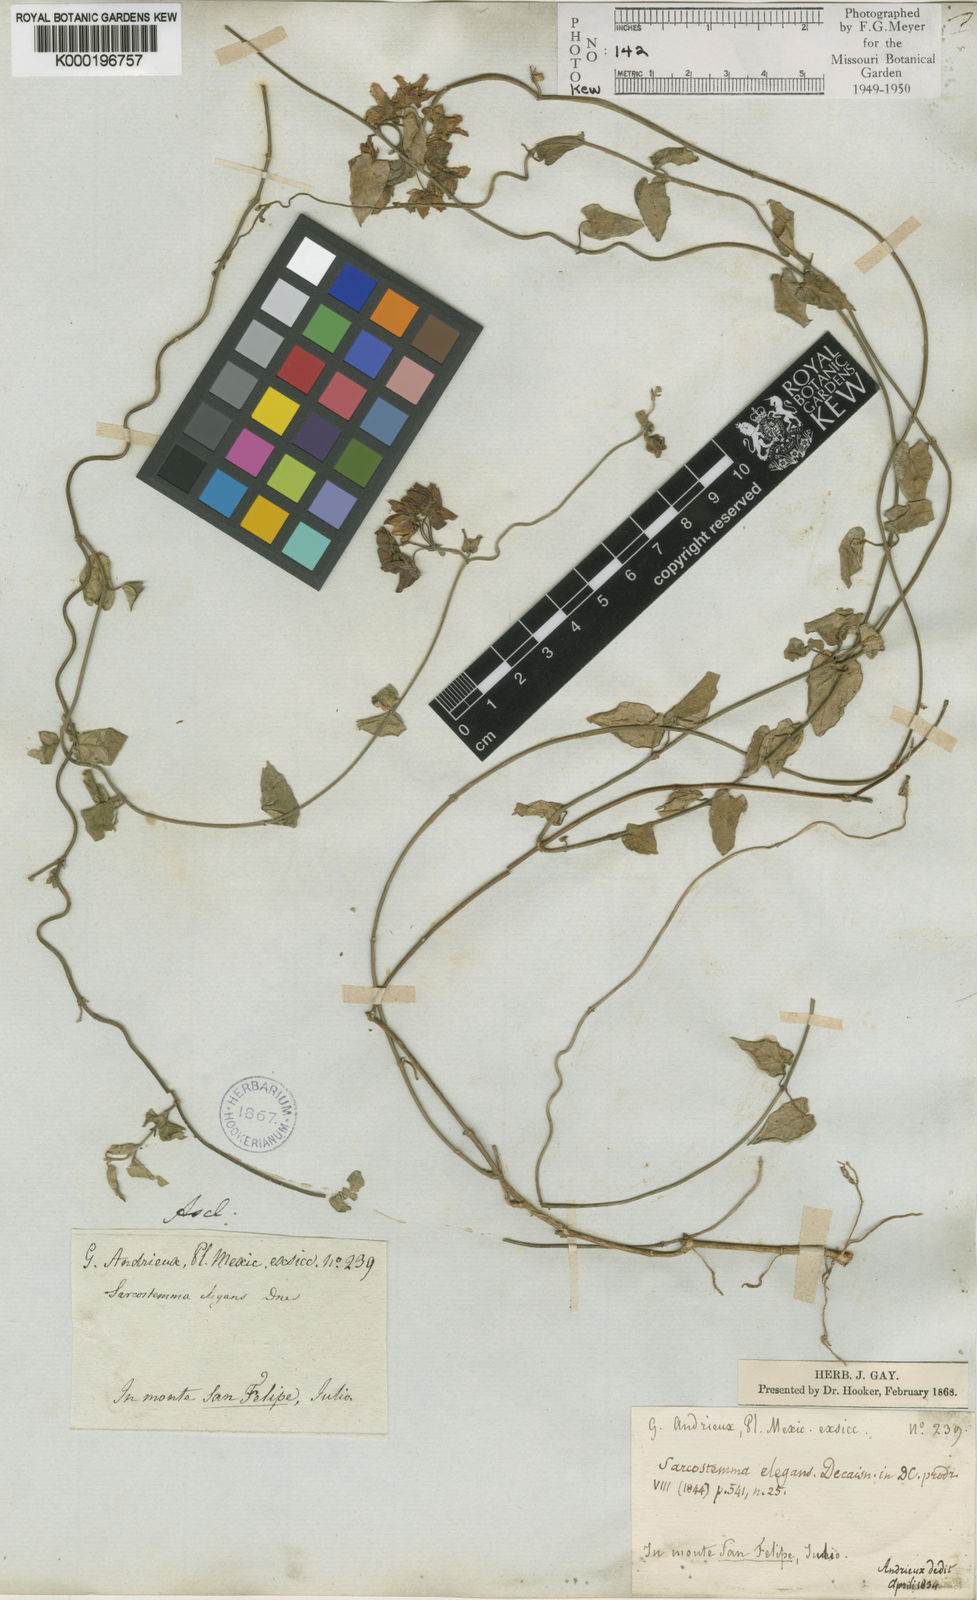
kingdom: Plantae
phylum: Tracheophyta
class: Magnoliopsida
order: Gentianales
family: Apocynaceae
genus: Funastrum
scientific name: Funastrum elegans
